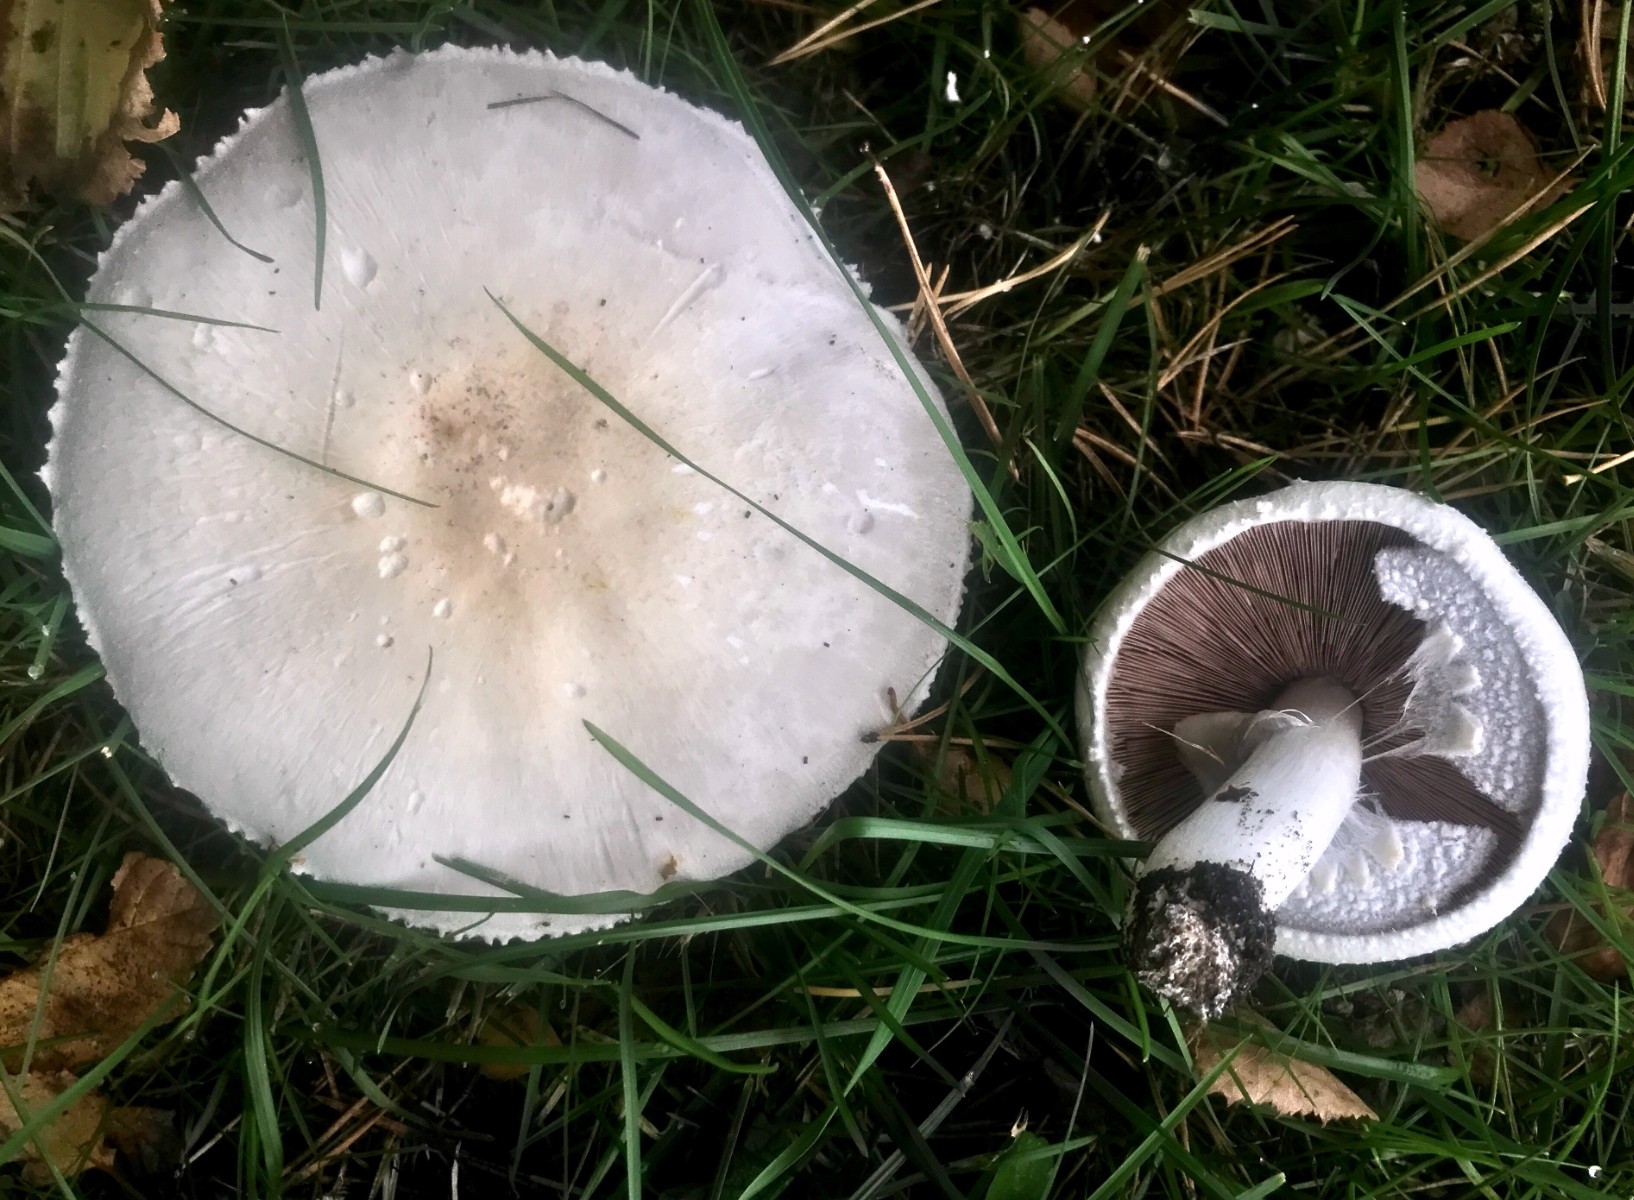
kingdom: Fungi
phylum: Basidiomycota
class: Agaricomycetes
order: Agaricales
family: Agaricaceae
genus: Agaricus
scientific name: Agaricus arvensis
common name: ager-champignon
